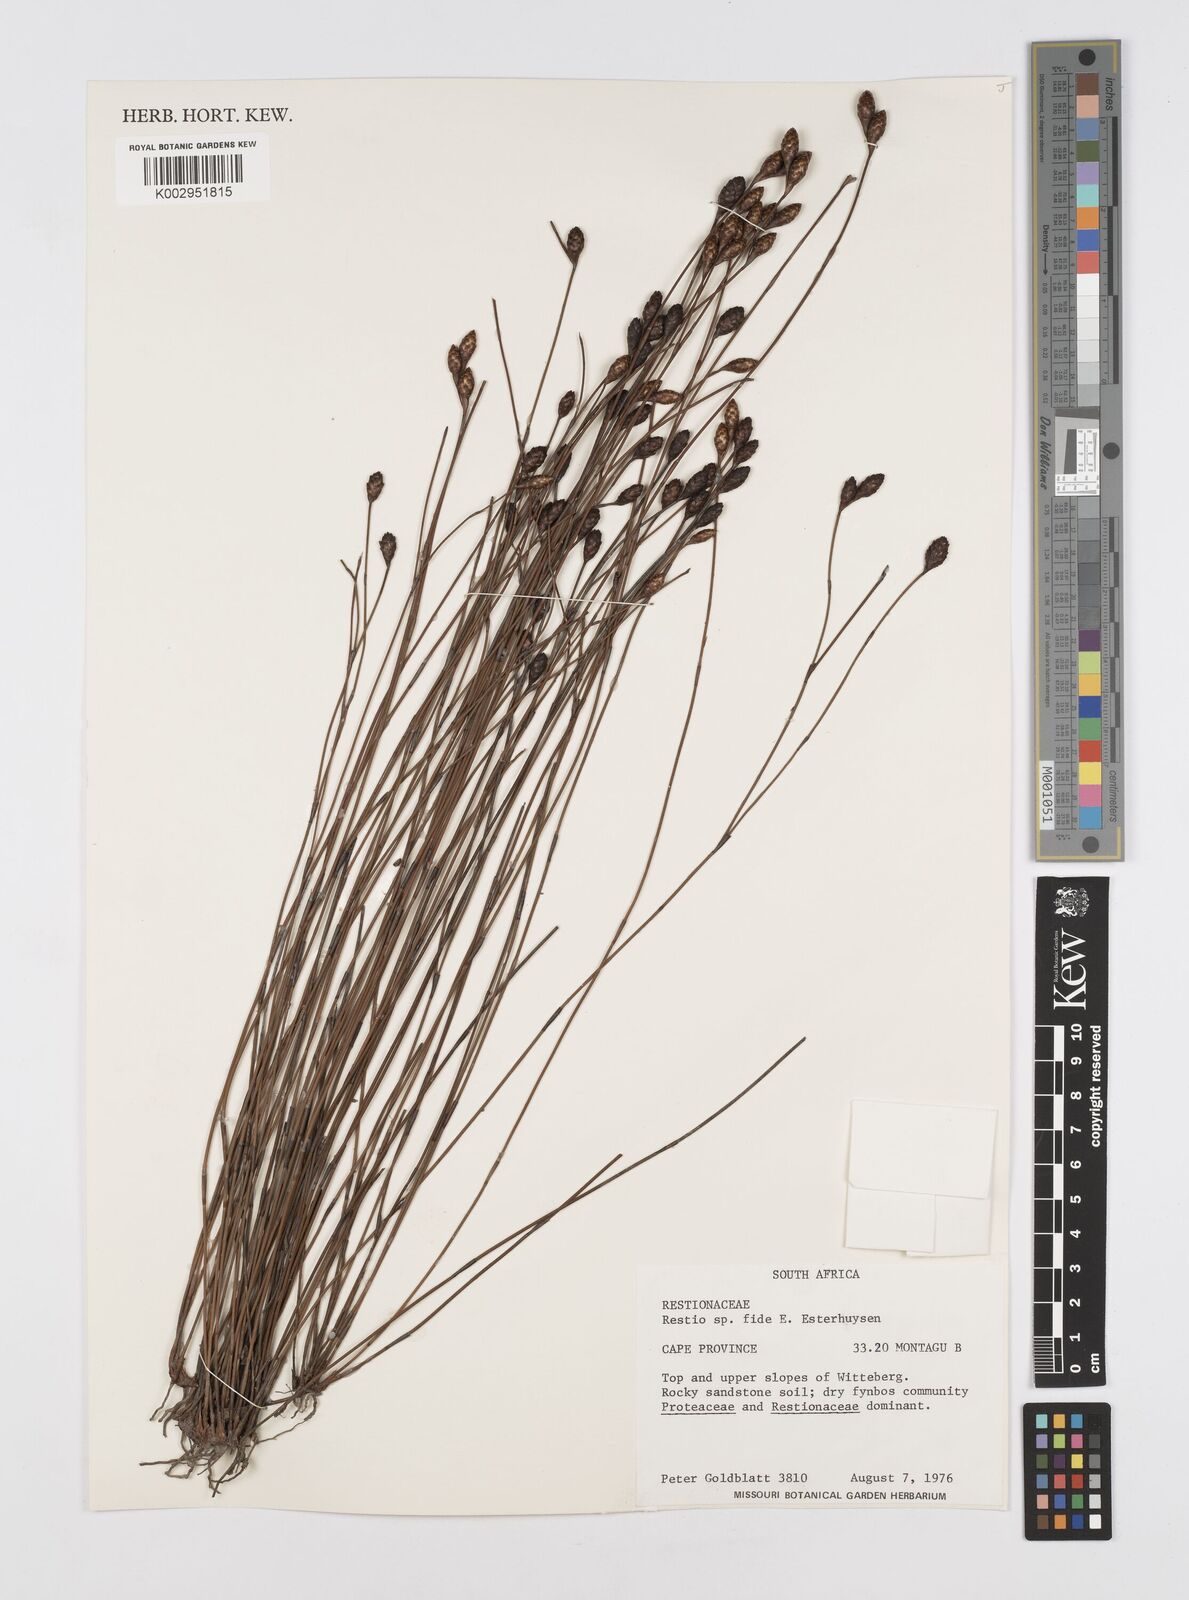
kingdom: Plantae
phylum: Tracheophyta
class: Liliopsida
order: Poales
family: Restionaceae
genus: Restio
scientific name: Restio
